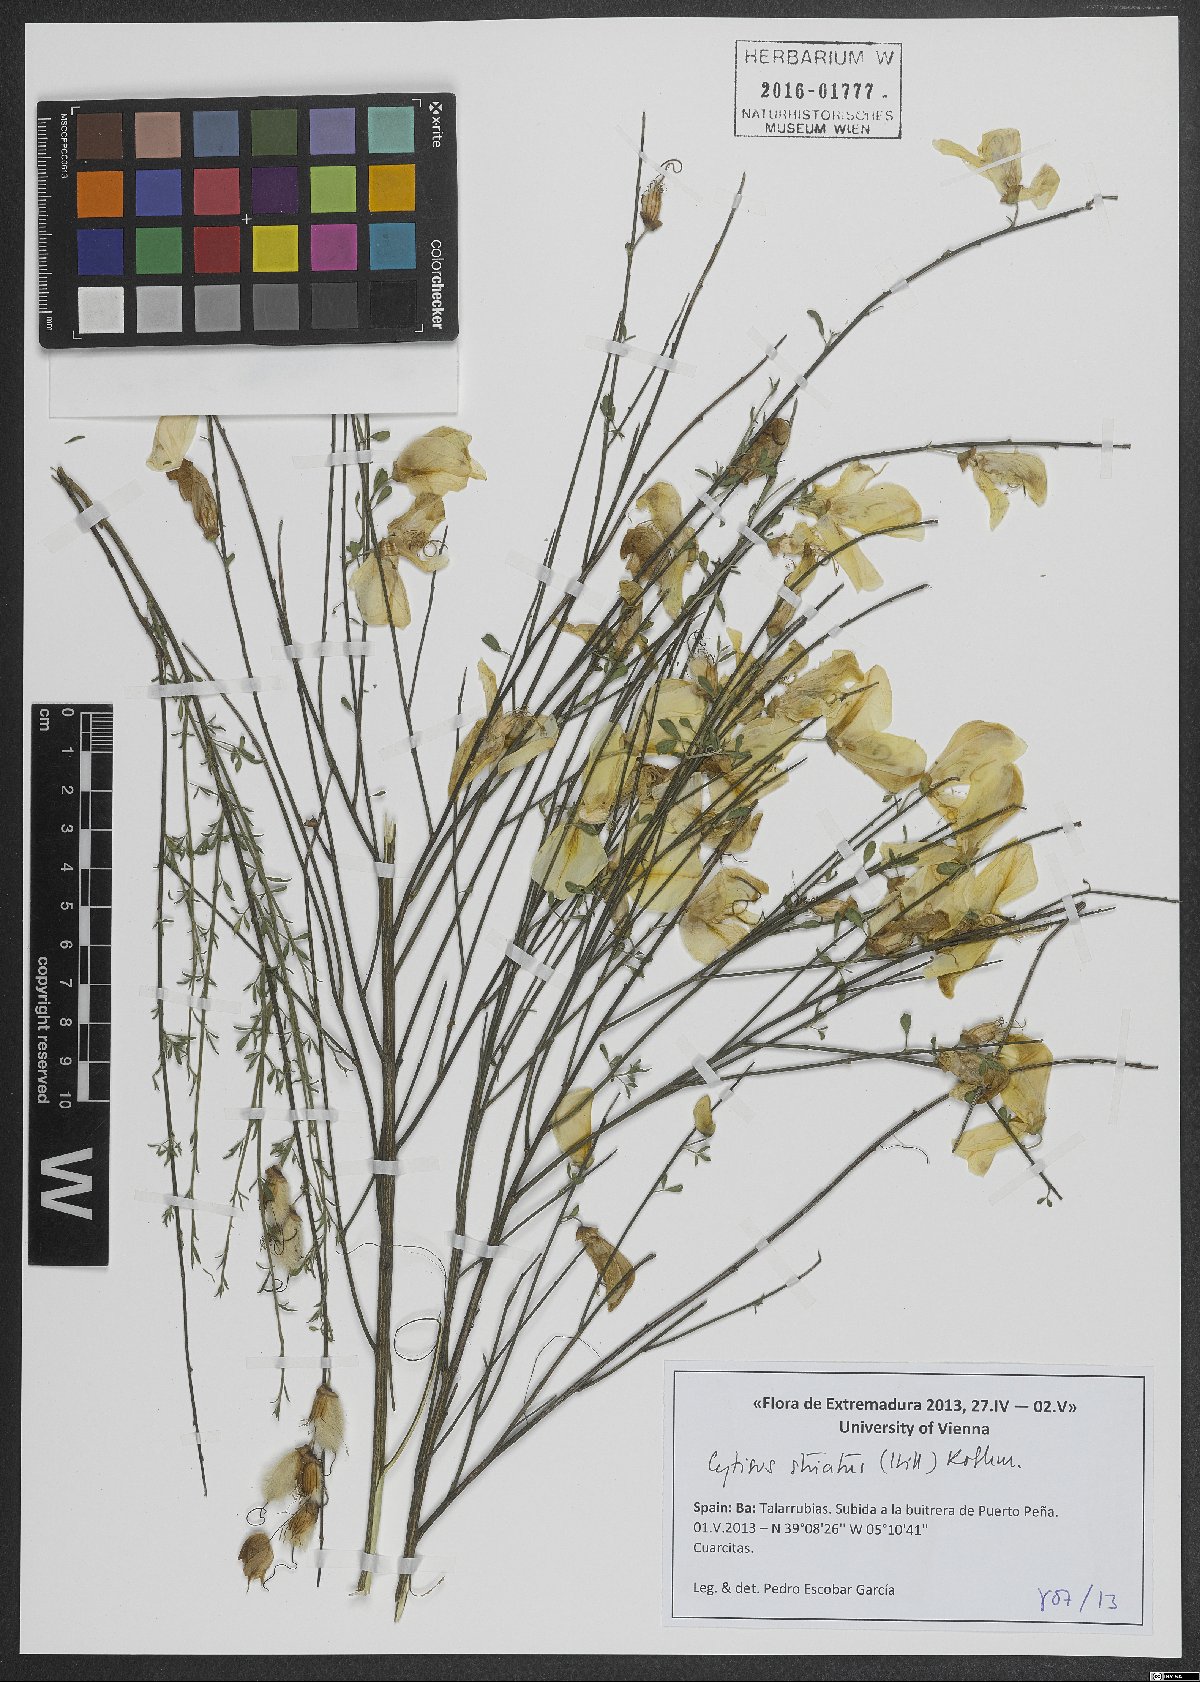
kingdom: Plantae
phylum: Tracheophyta
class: Magnoliopsida
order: Fabales
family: Fabaceae
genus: Cytisus
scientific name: Cytisus striatus
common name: Hairy-fruited broom
